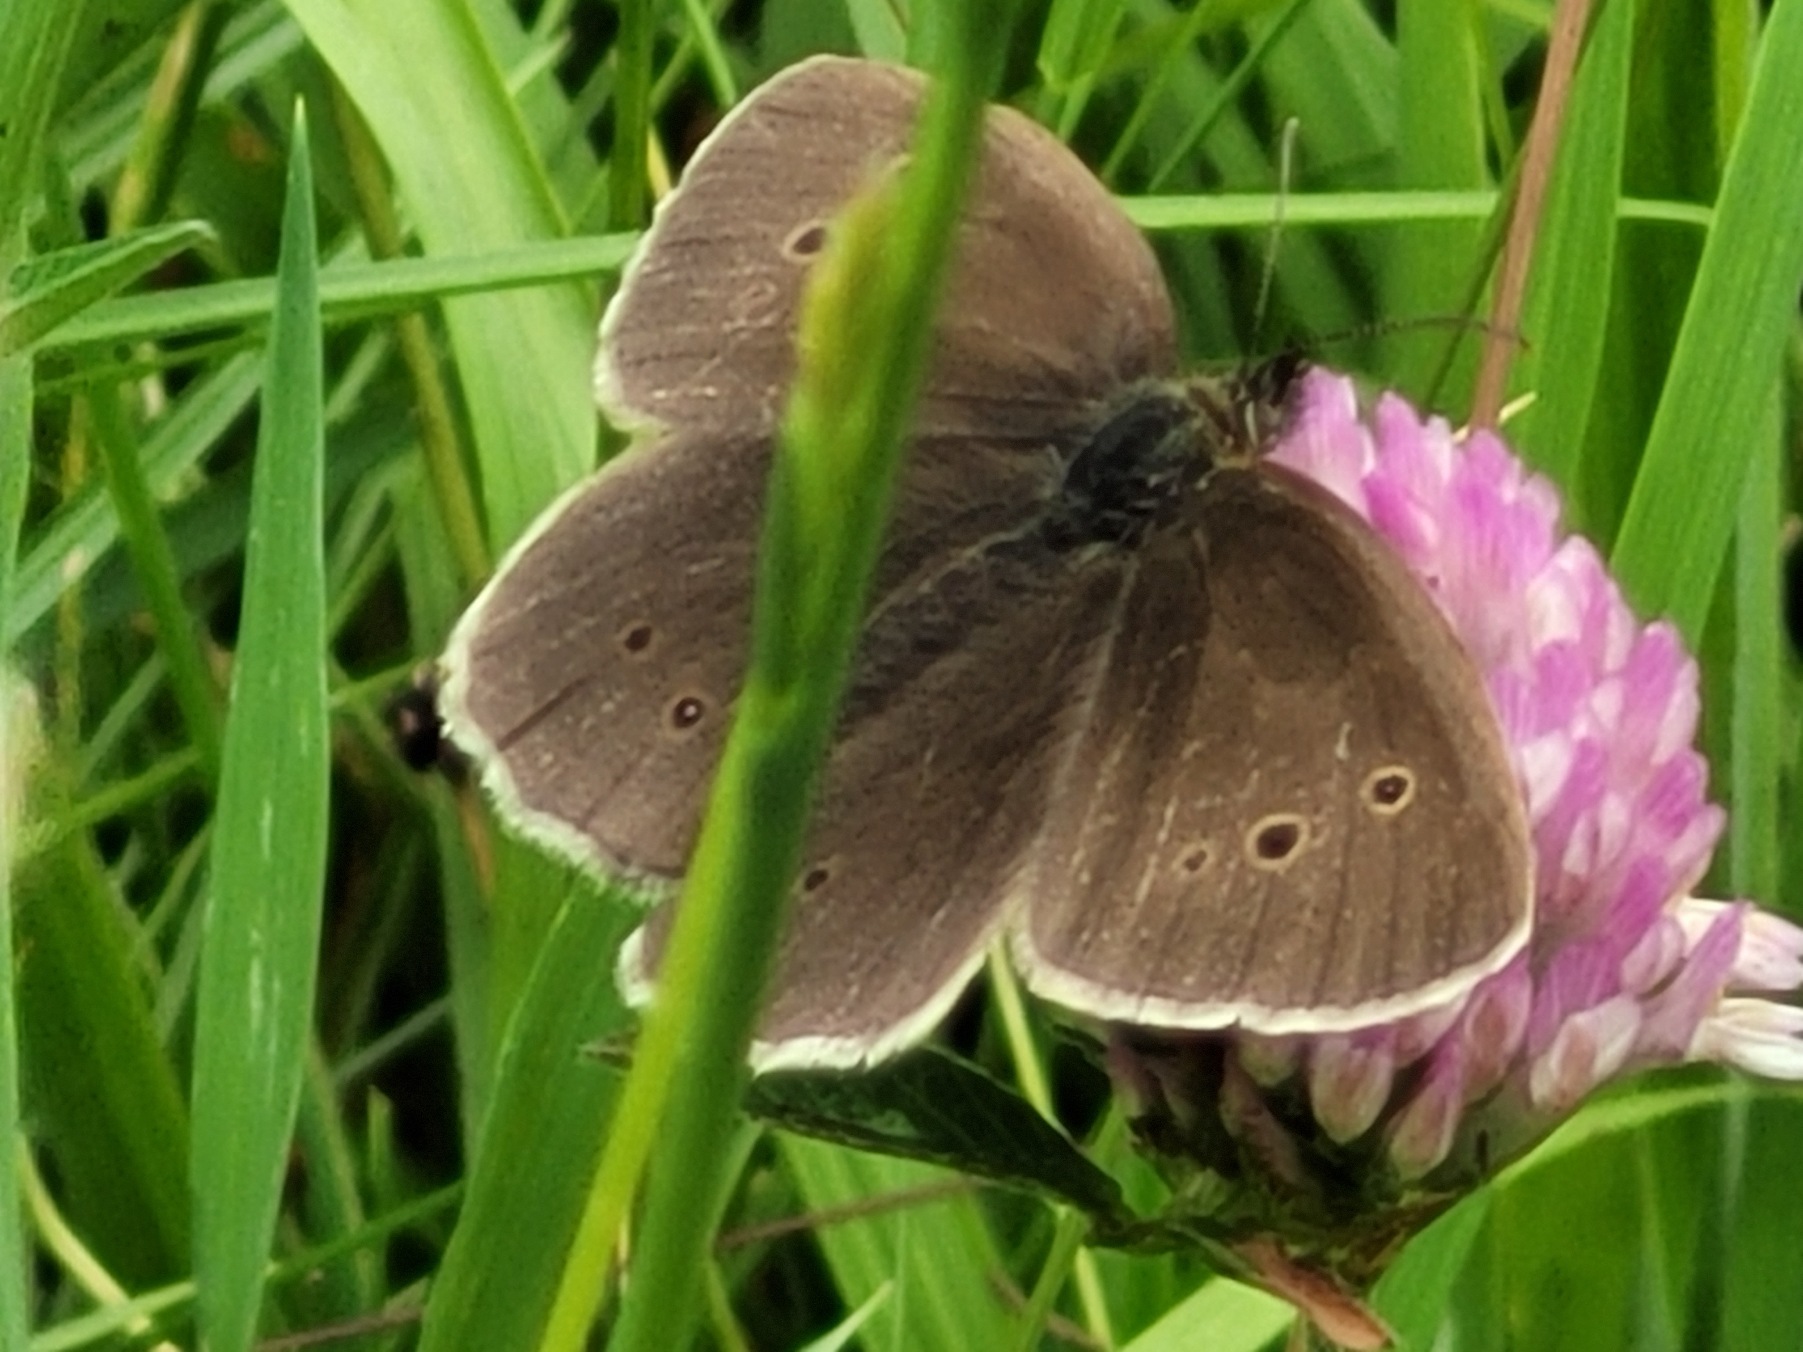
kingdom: Animalia
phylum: Arthropoda
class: Insecta
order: Lepidoptera
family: Nymphalidae
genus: Aphantopus
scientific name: Aphantopus hyperantus
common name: Engrandøje
